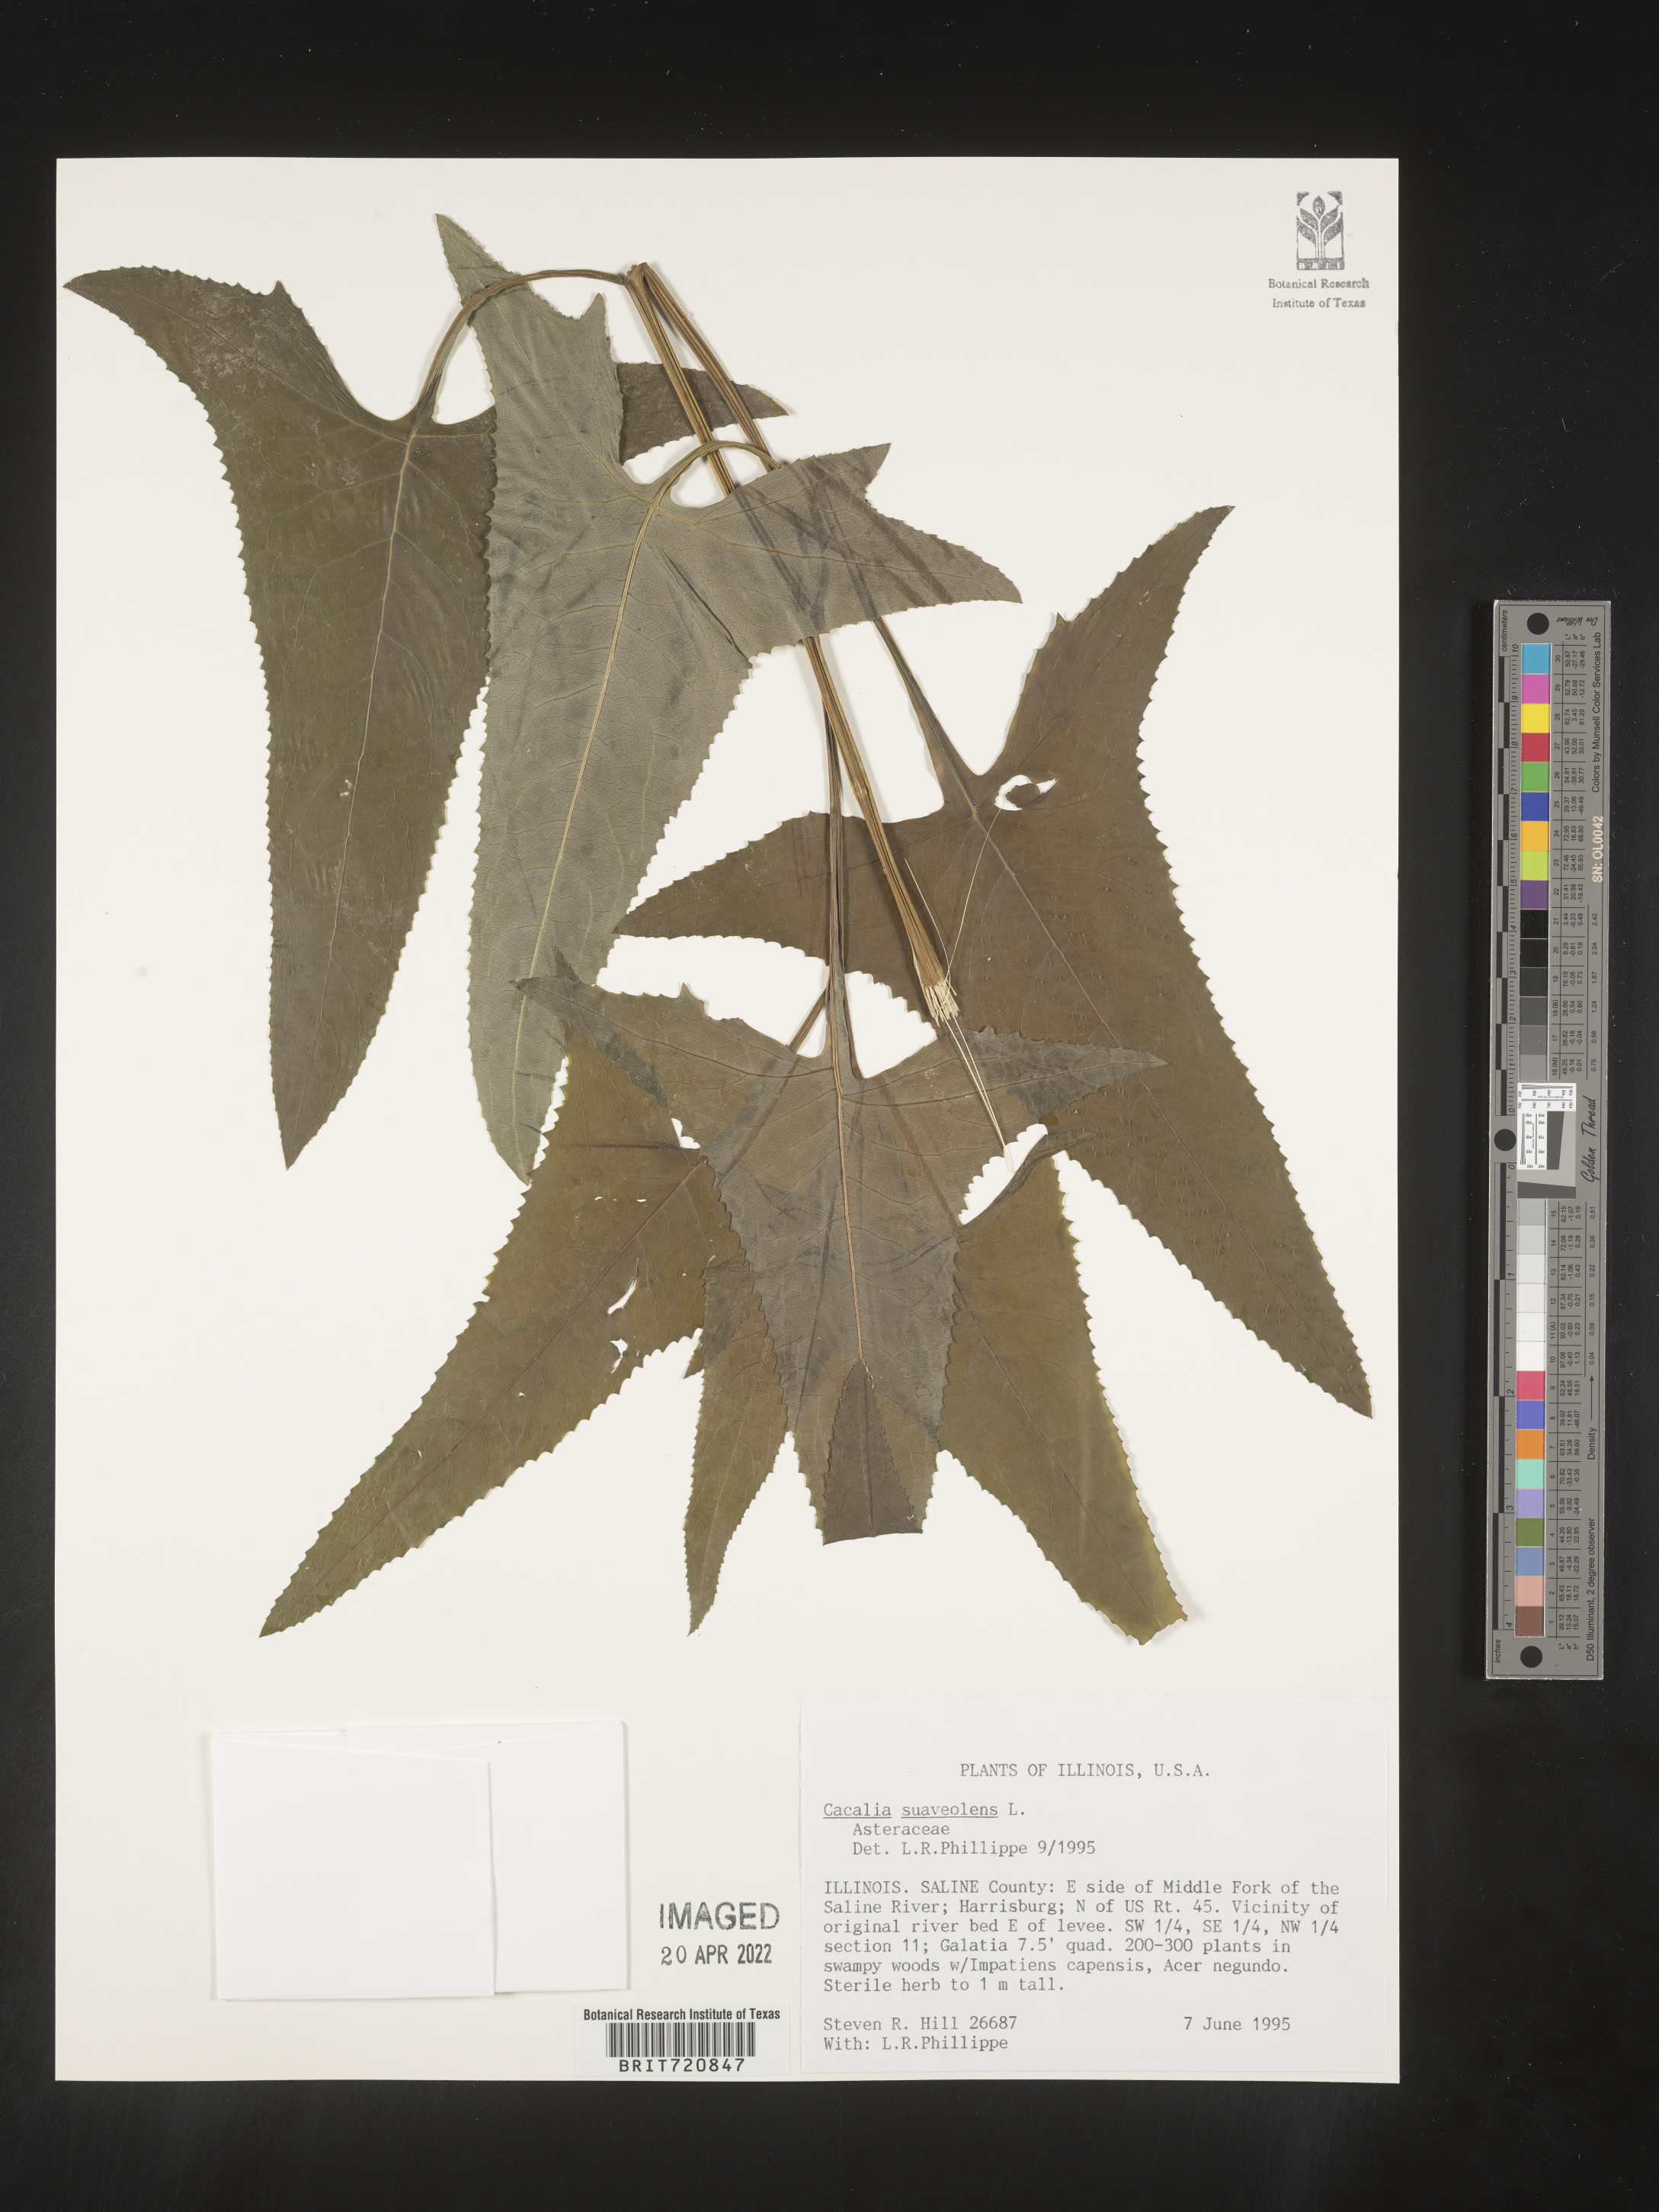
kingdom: Plantae
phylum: Tracheophyta
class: Magnoliopsida
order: Asterales
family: Asteraceae
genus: Hasteola
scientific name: Hasteola suaveolens
